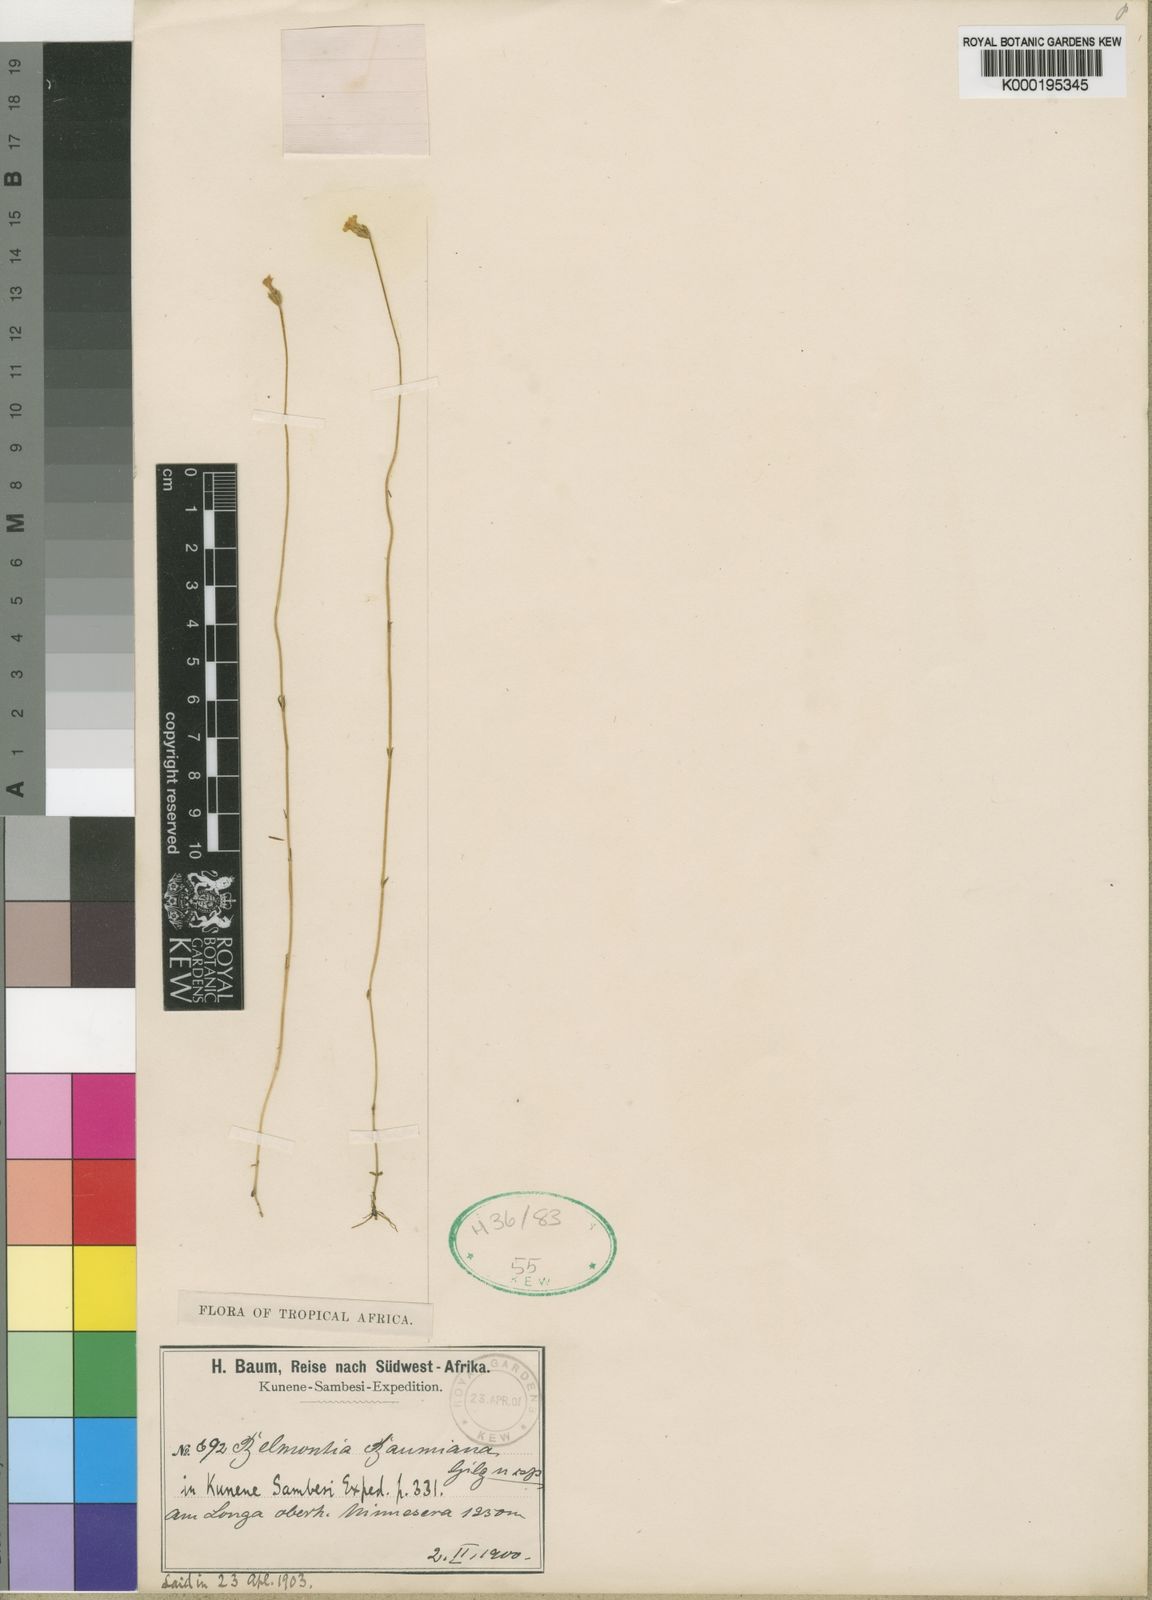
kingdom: Plantae
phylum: Tracheophyta
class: Magnoliopsida
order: Gentianales
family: Gentianaceae
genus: Exochaenium
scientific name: Exochaenium baumianum
